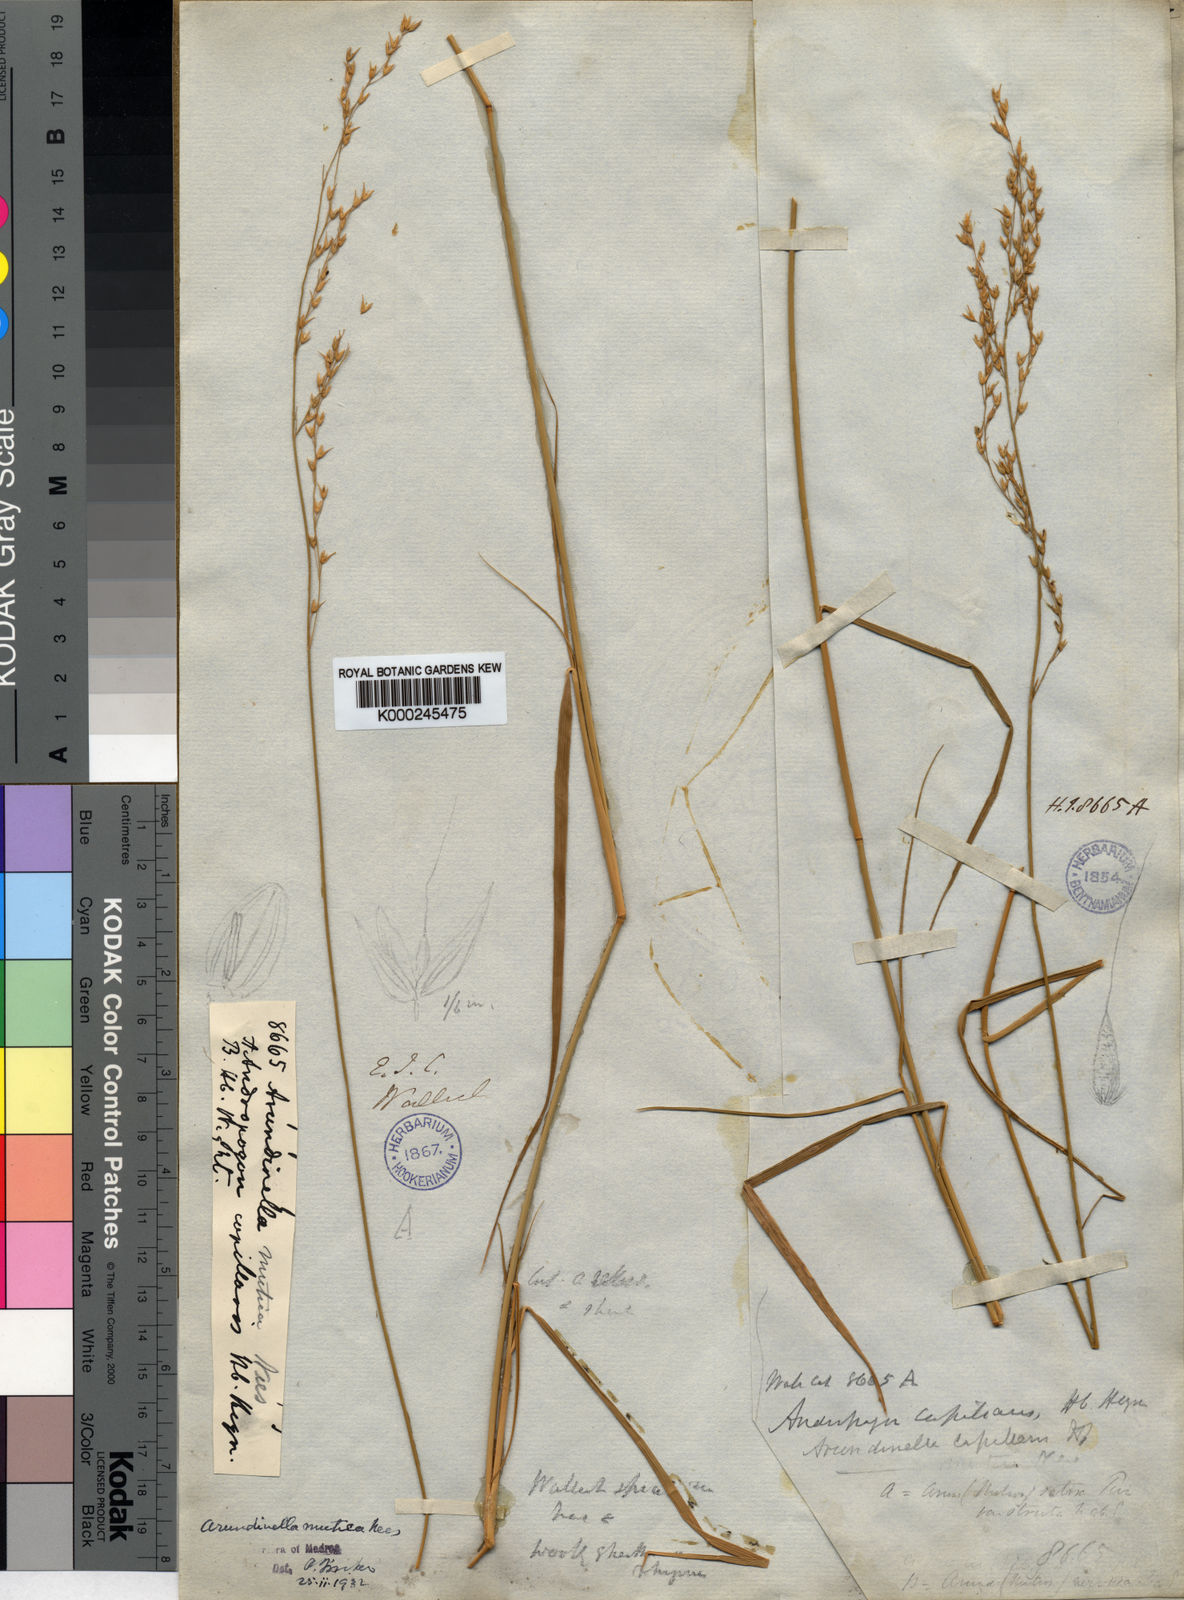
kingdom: Plantae
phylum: Tracheophyta
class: Liliopsida
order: Poales
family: Poaceae
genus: Arundinella
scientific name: Arundinella setosa
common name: Reed grass
